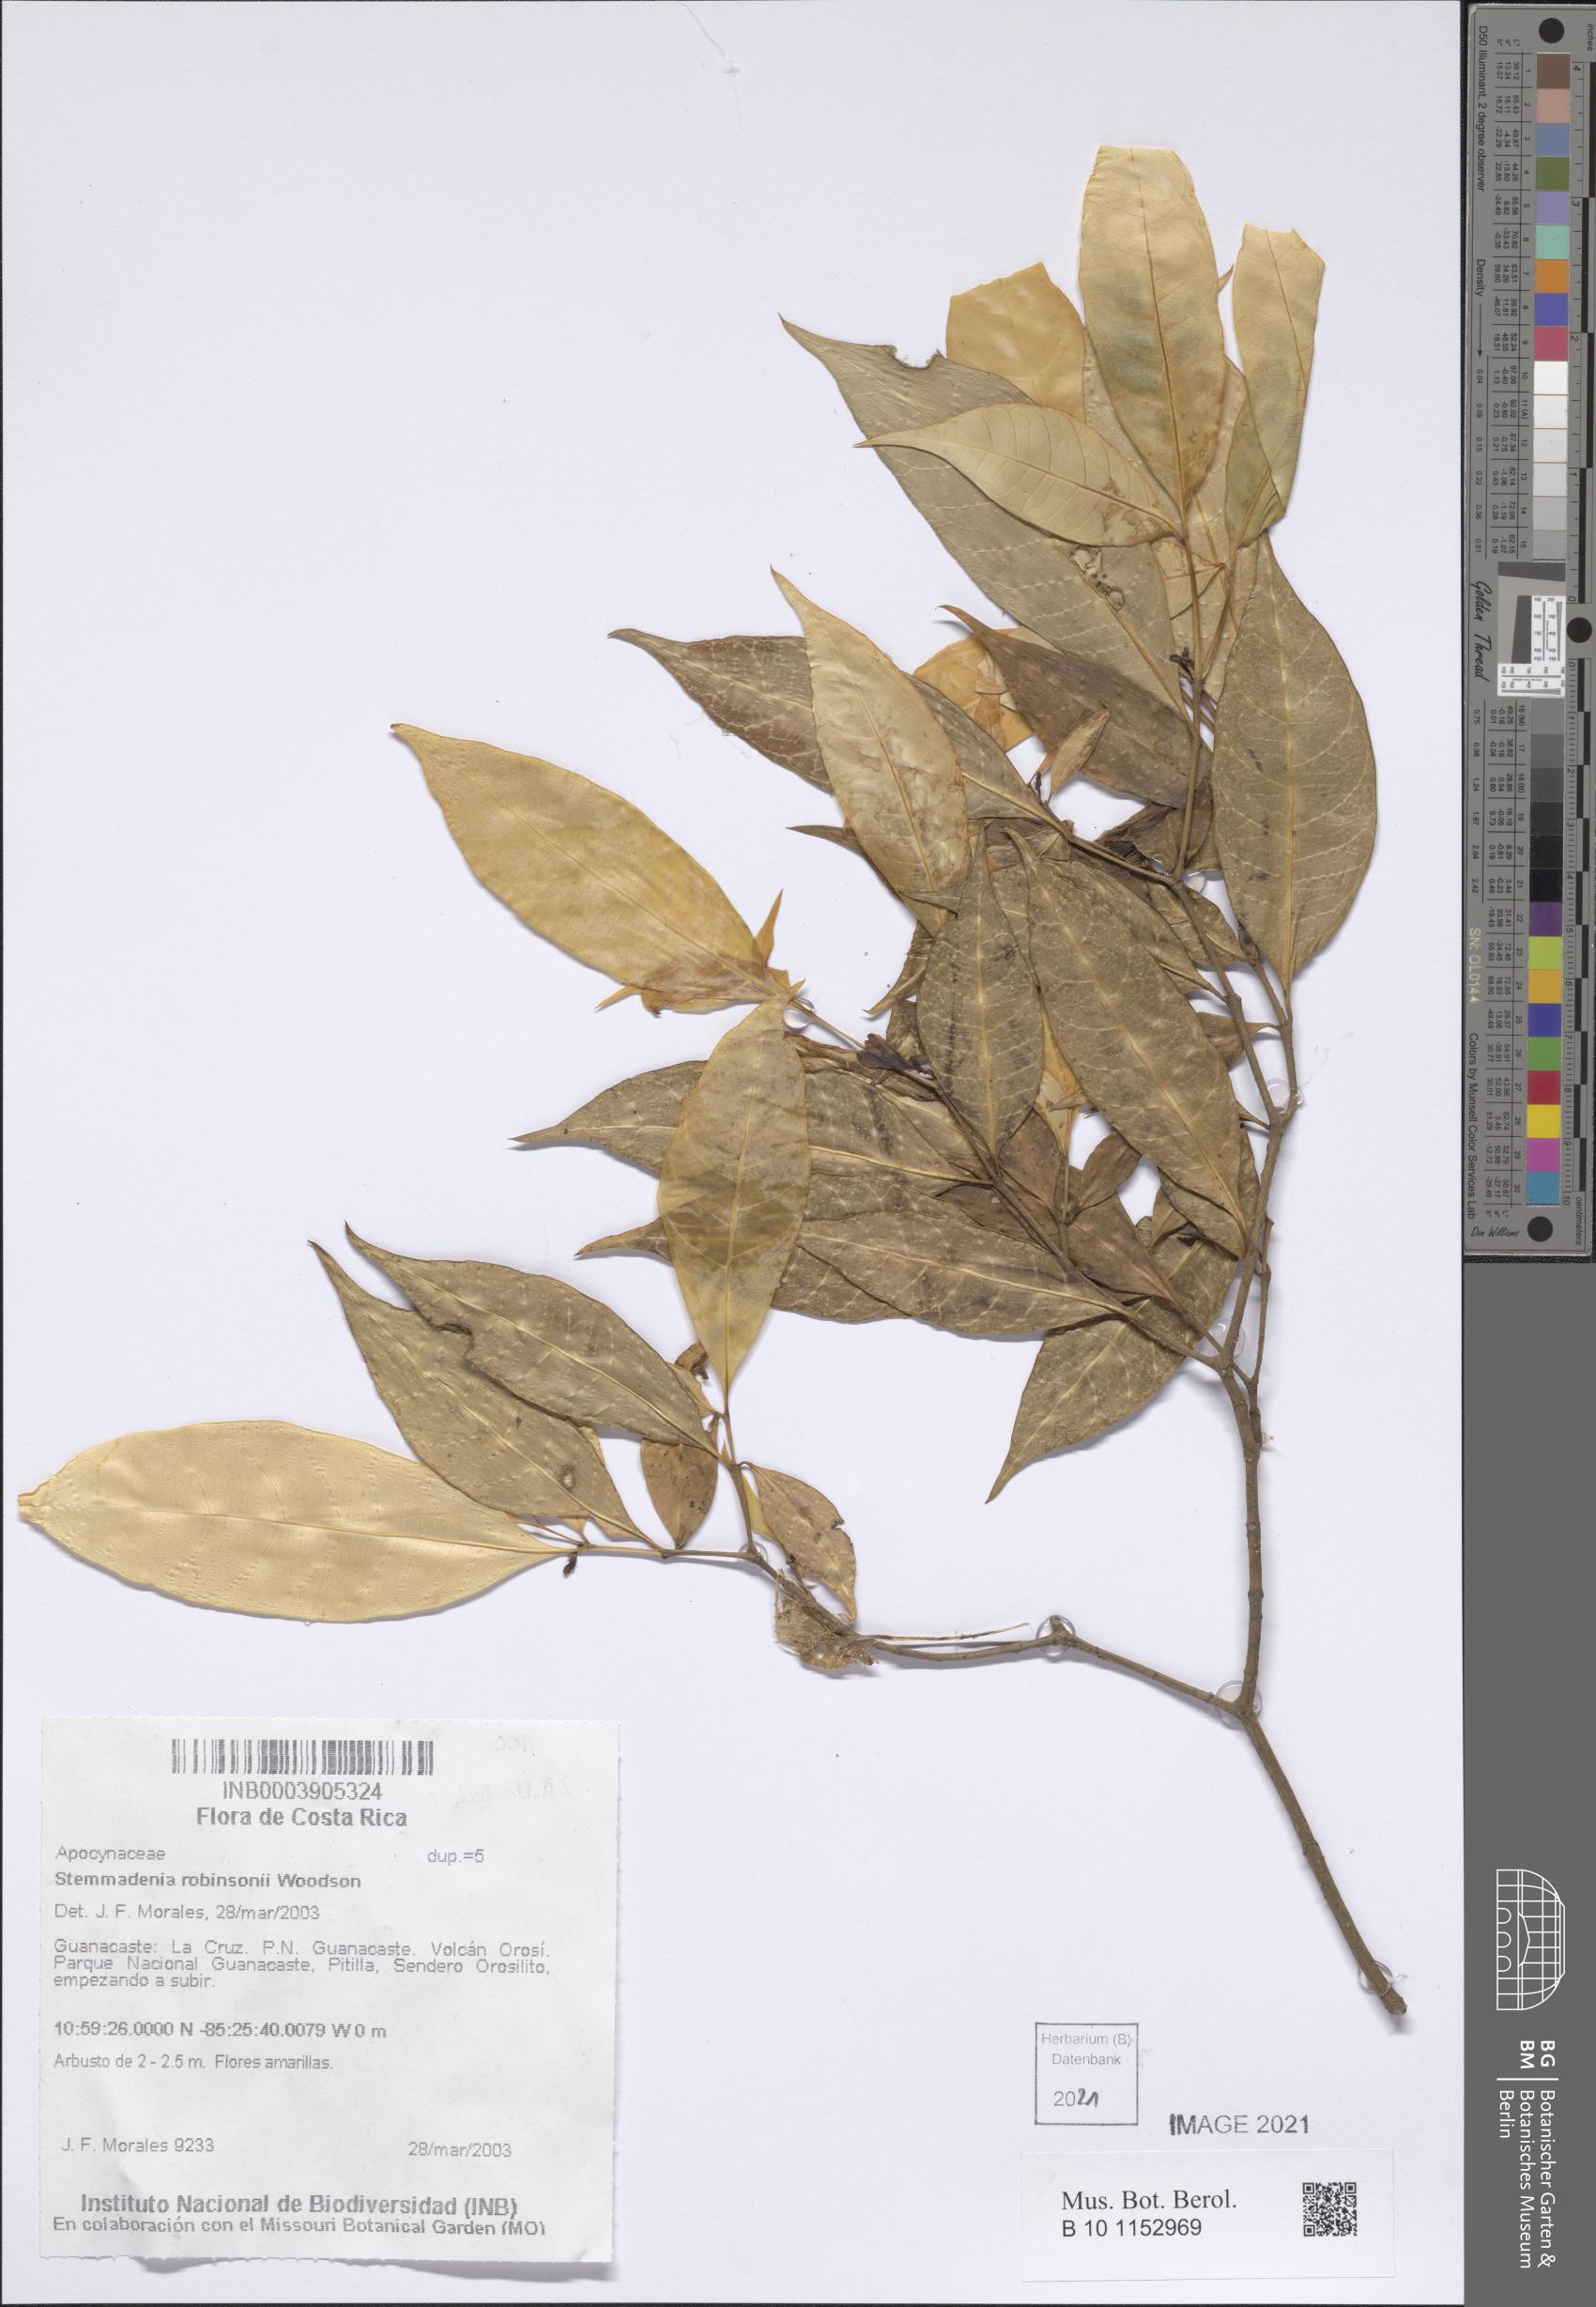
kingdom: Plantae
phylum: Tracheophyta
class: Magnoliopsida
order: Gentianales
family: Apocynaceae
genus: Tabernaemontana
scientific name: Tabernaemontana alfaroi
